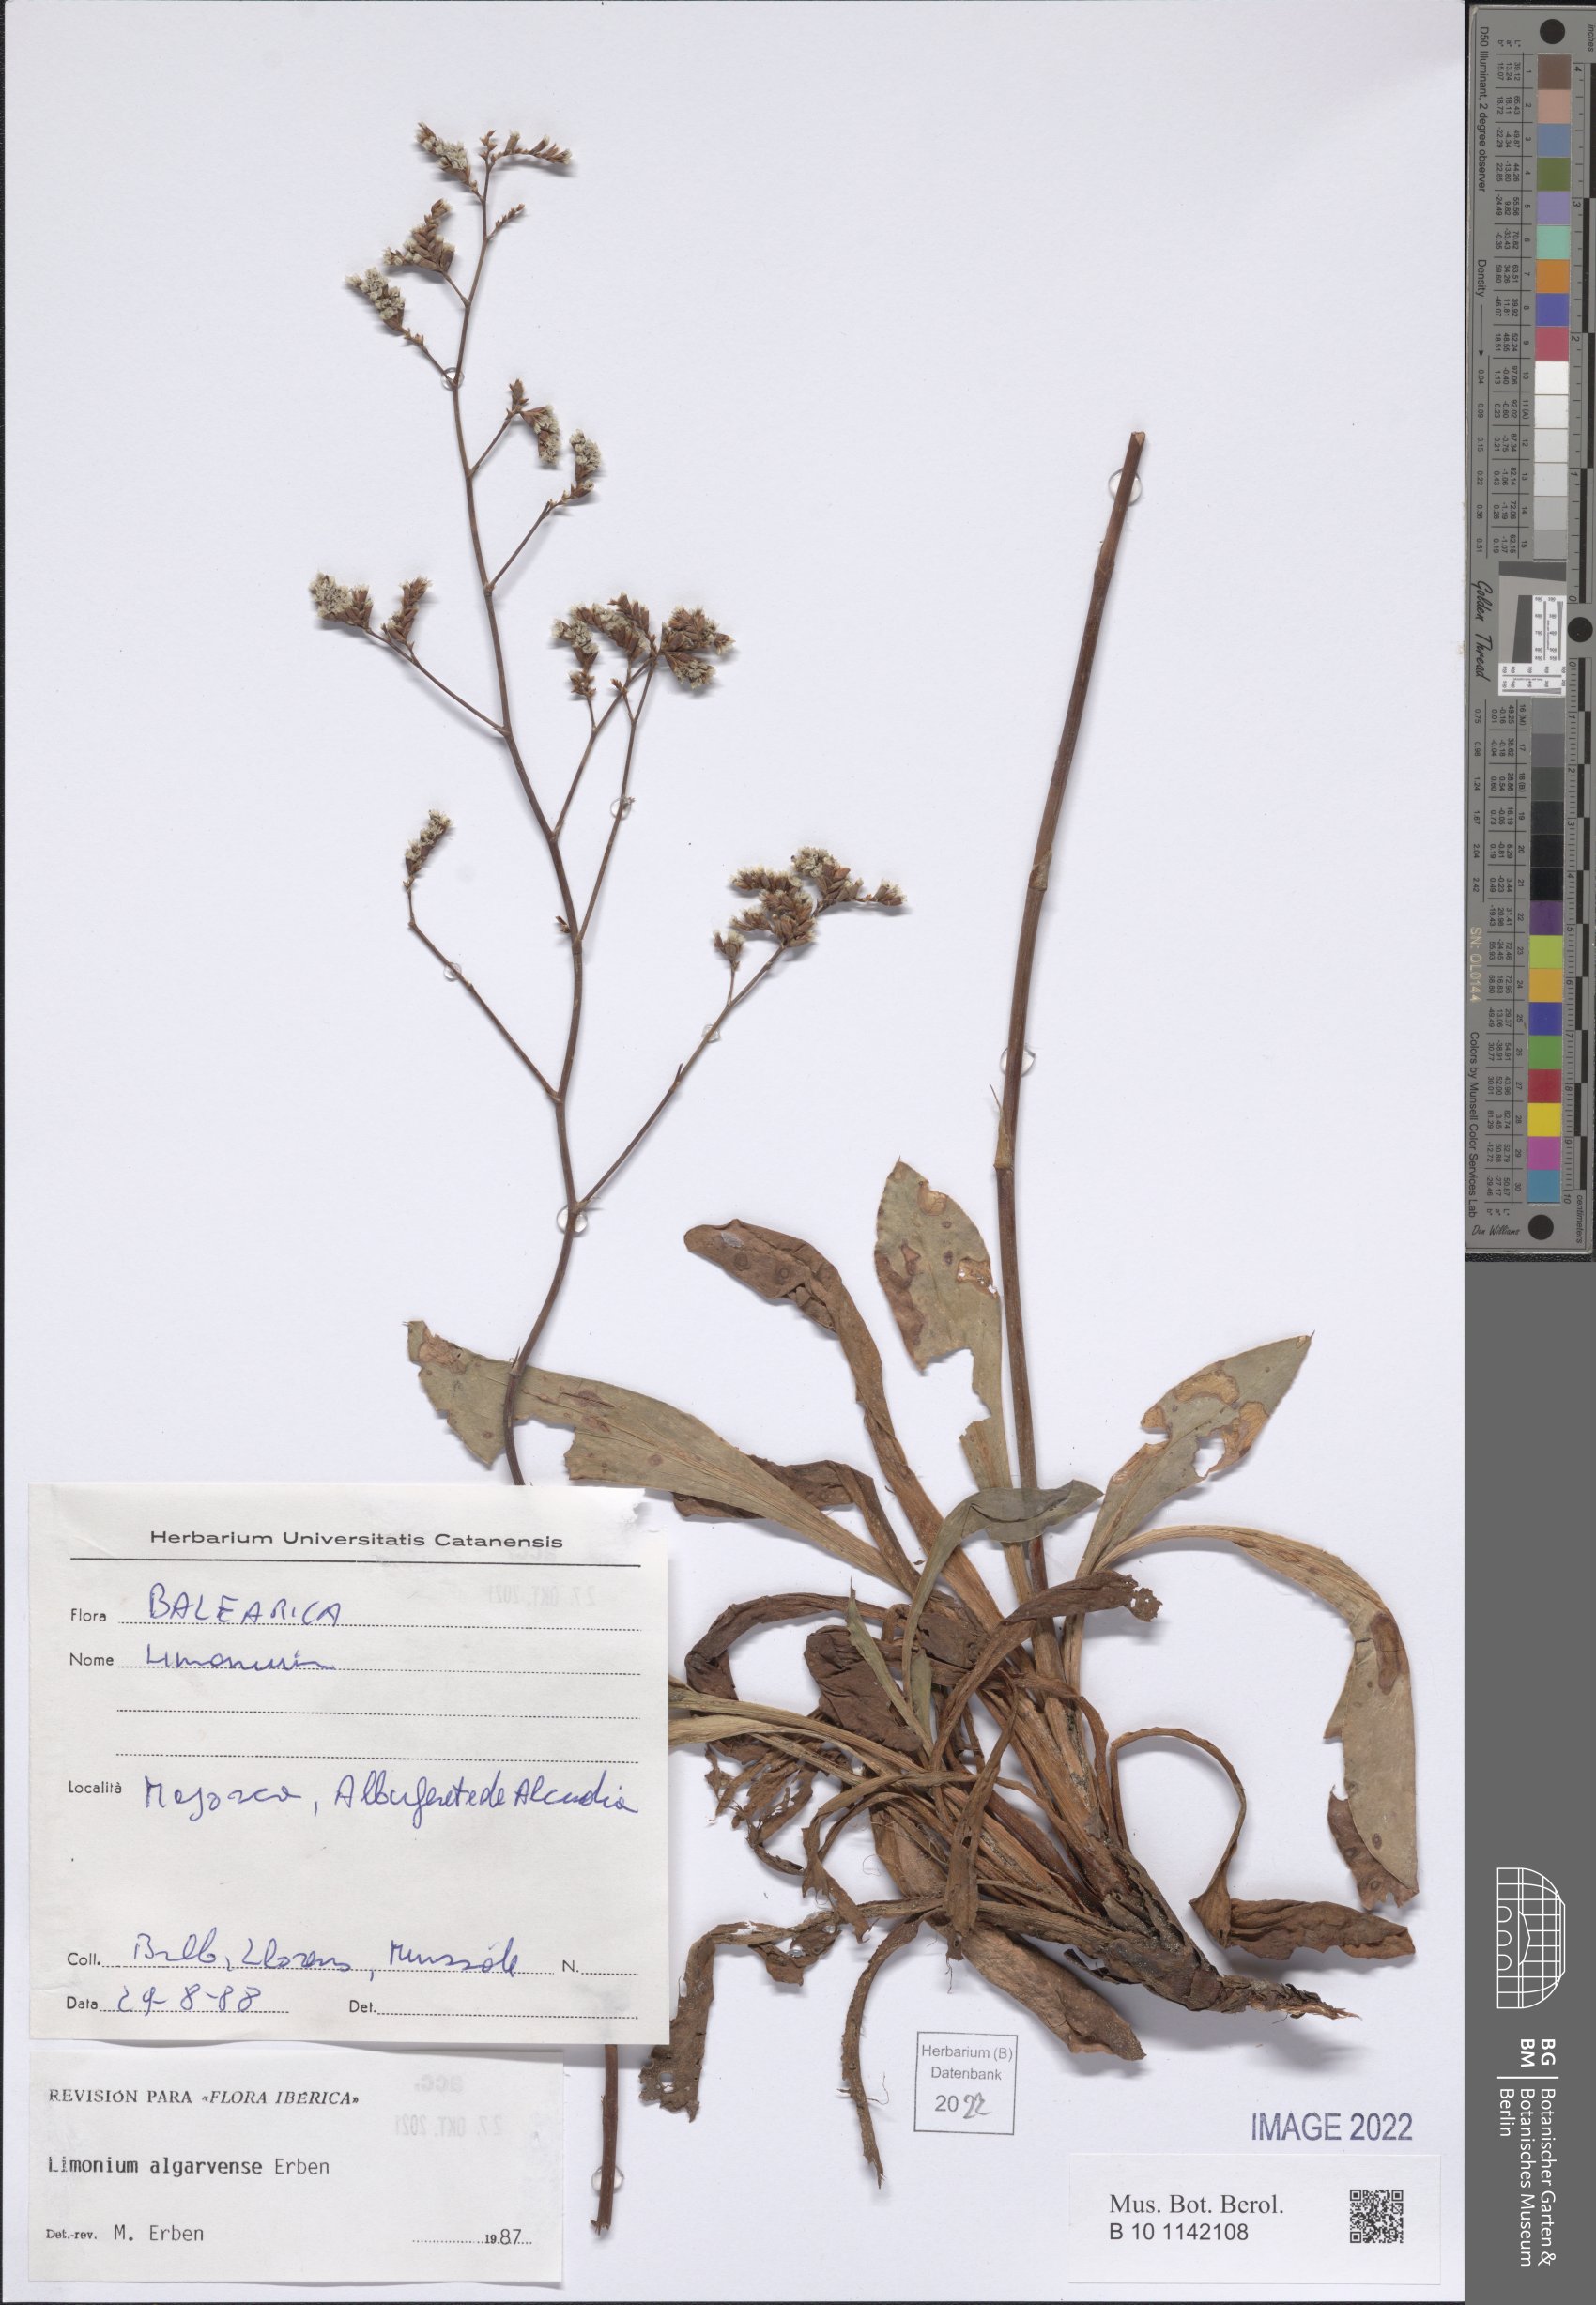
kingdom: Plantae
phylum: Tracheophyta
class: Magnoliopsida
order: Caryophyllales
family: Plumbaginaceae
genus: Limonium
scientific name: Limonium algarvense
